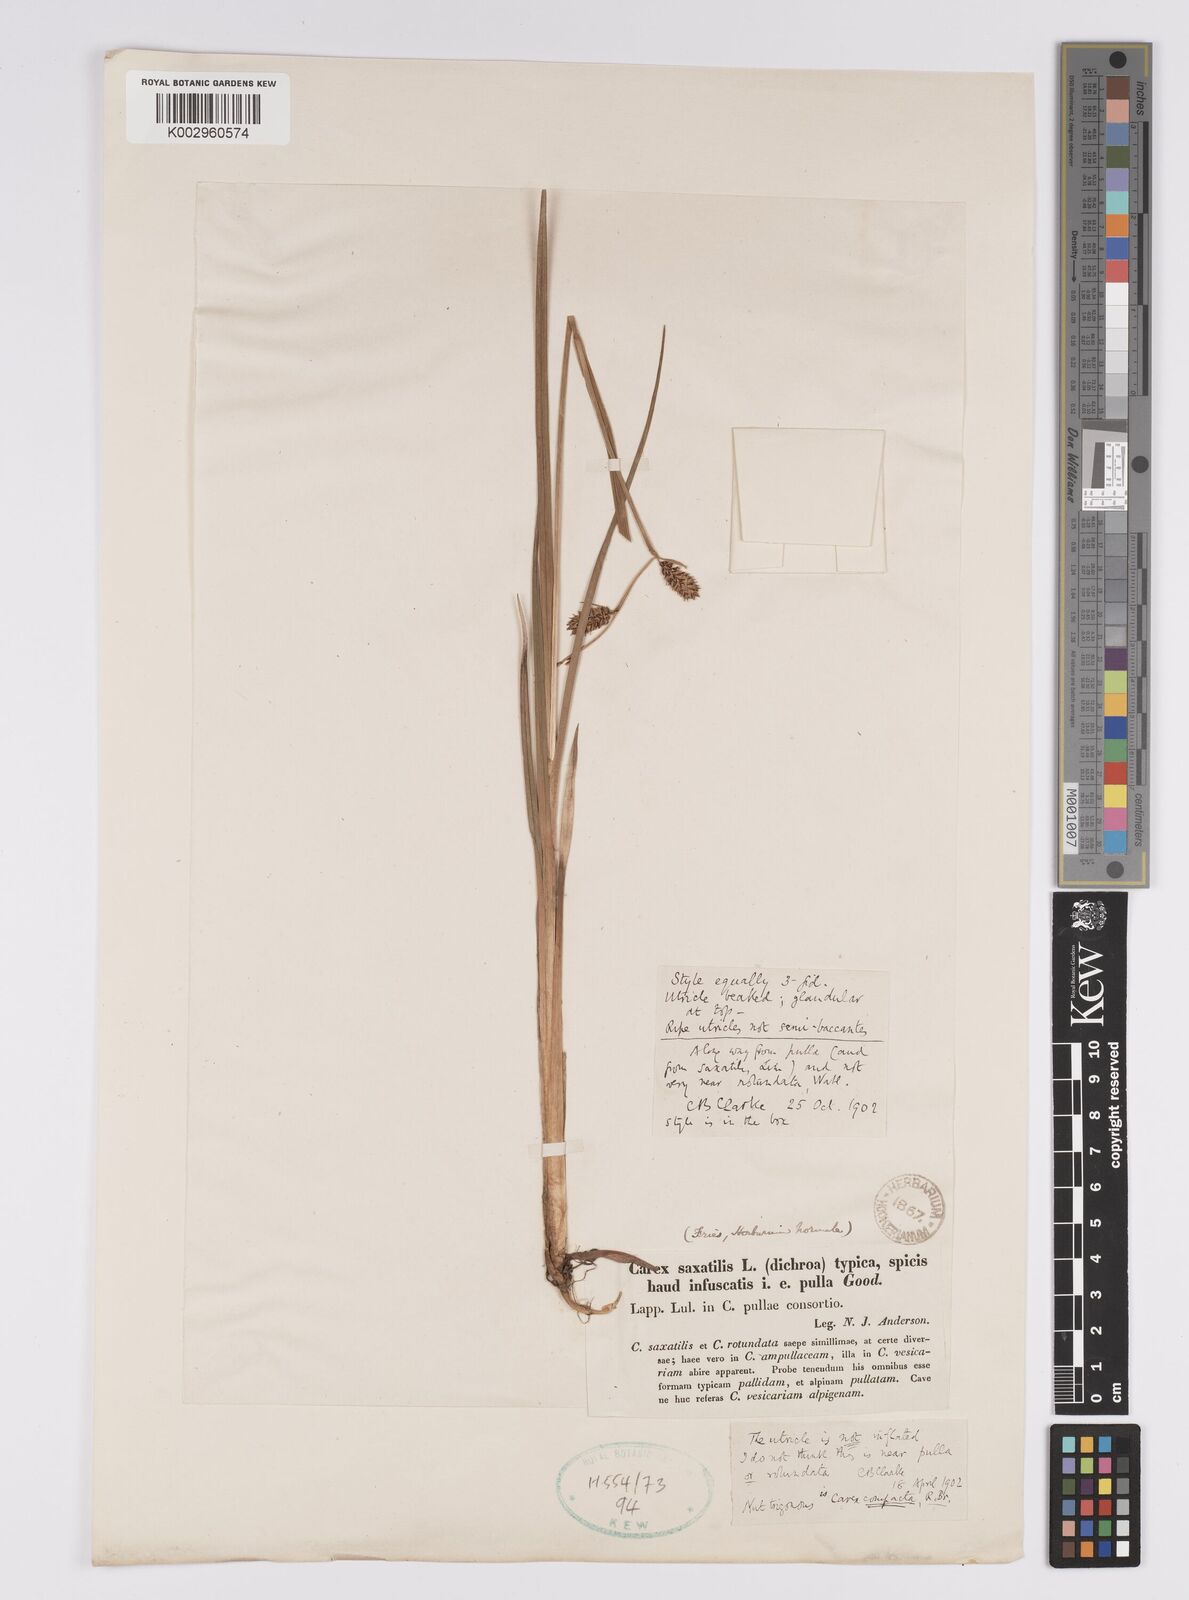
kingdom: Plantae
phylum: Tracheophyta
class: Liliopsida
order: Poales
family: Cyperaceae
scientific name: Cyperaceae
